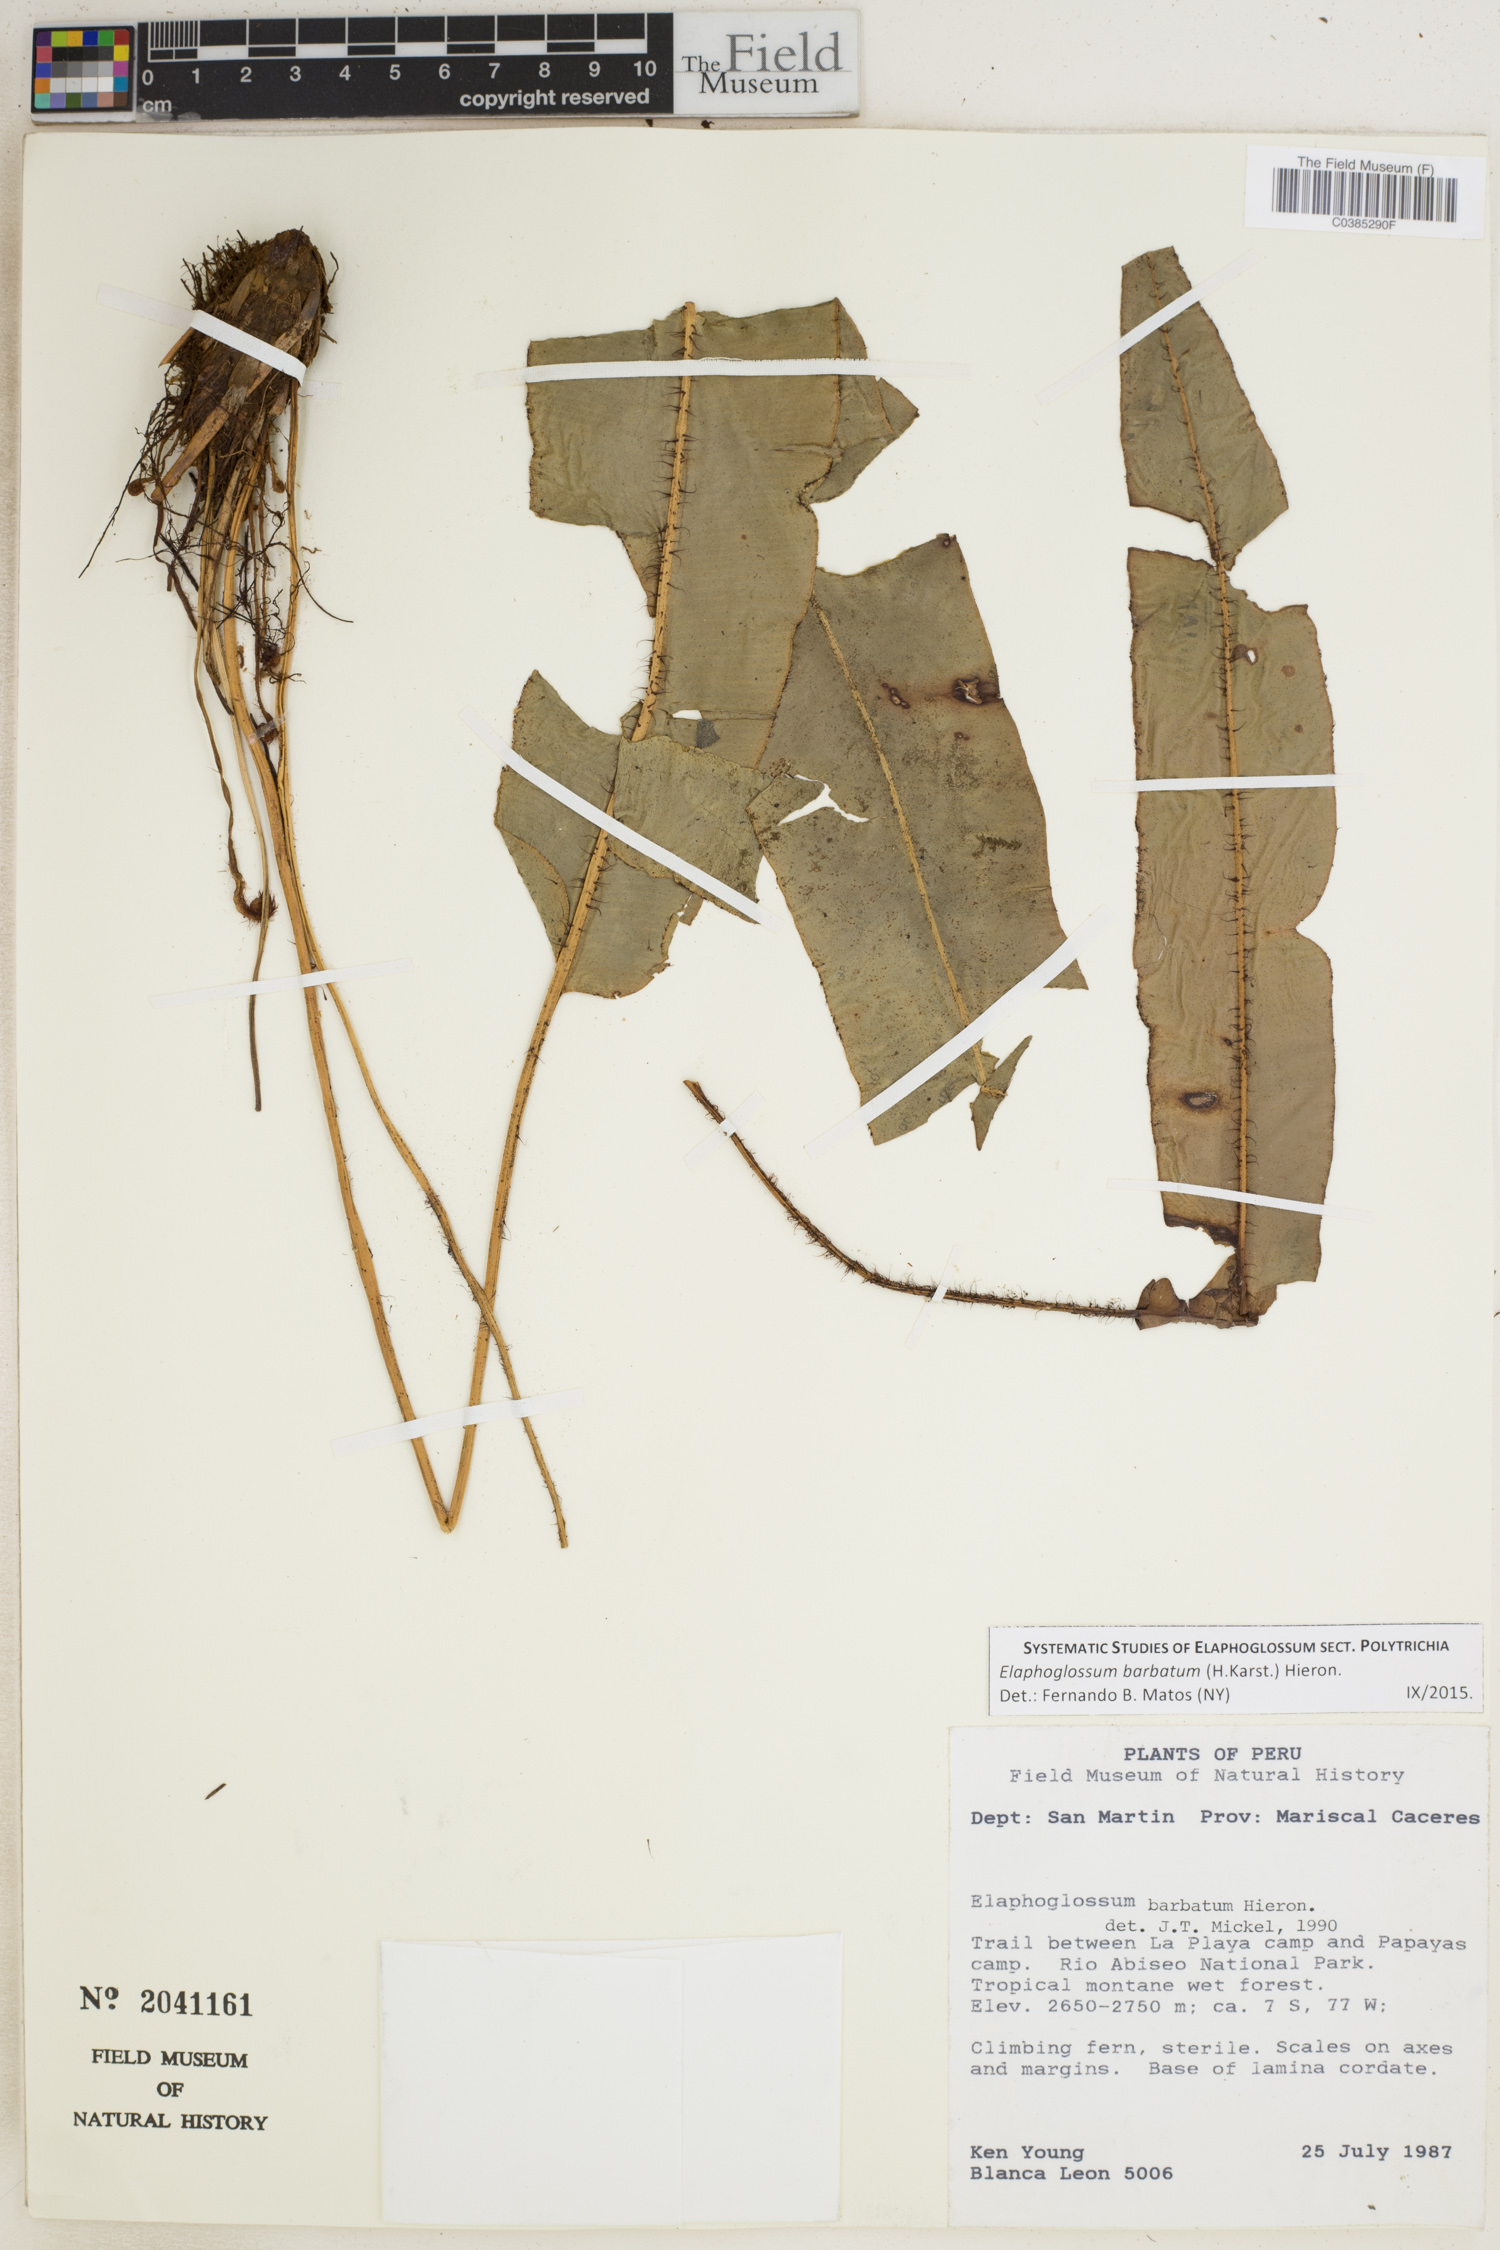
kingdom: Plantae
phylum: Tracheophyta
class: Polypodiopsida
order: Polypodiales
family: Dryopteridaceae
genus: Elaphoglossum
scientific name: Elaphoglossum barbatum
